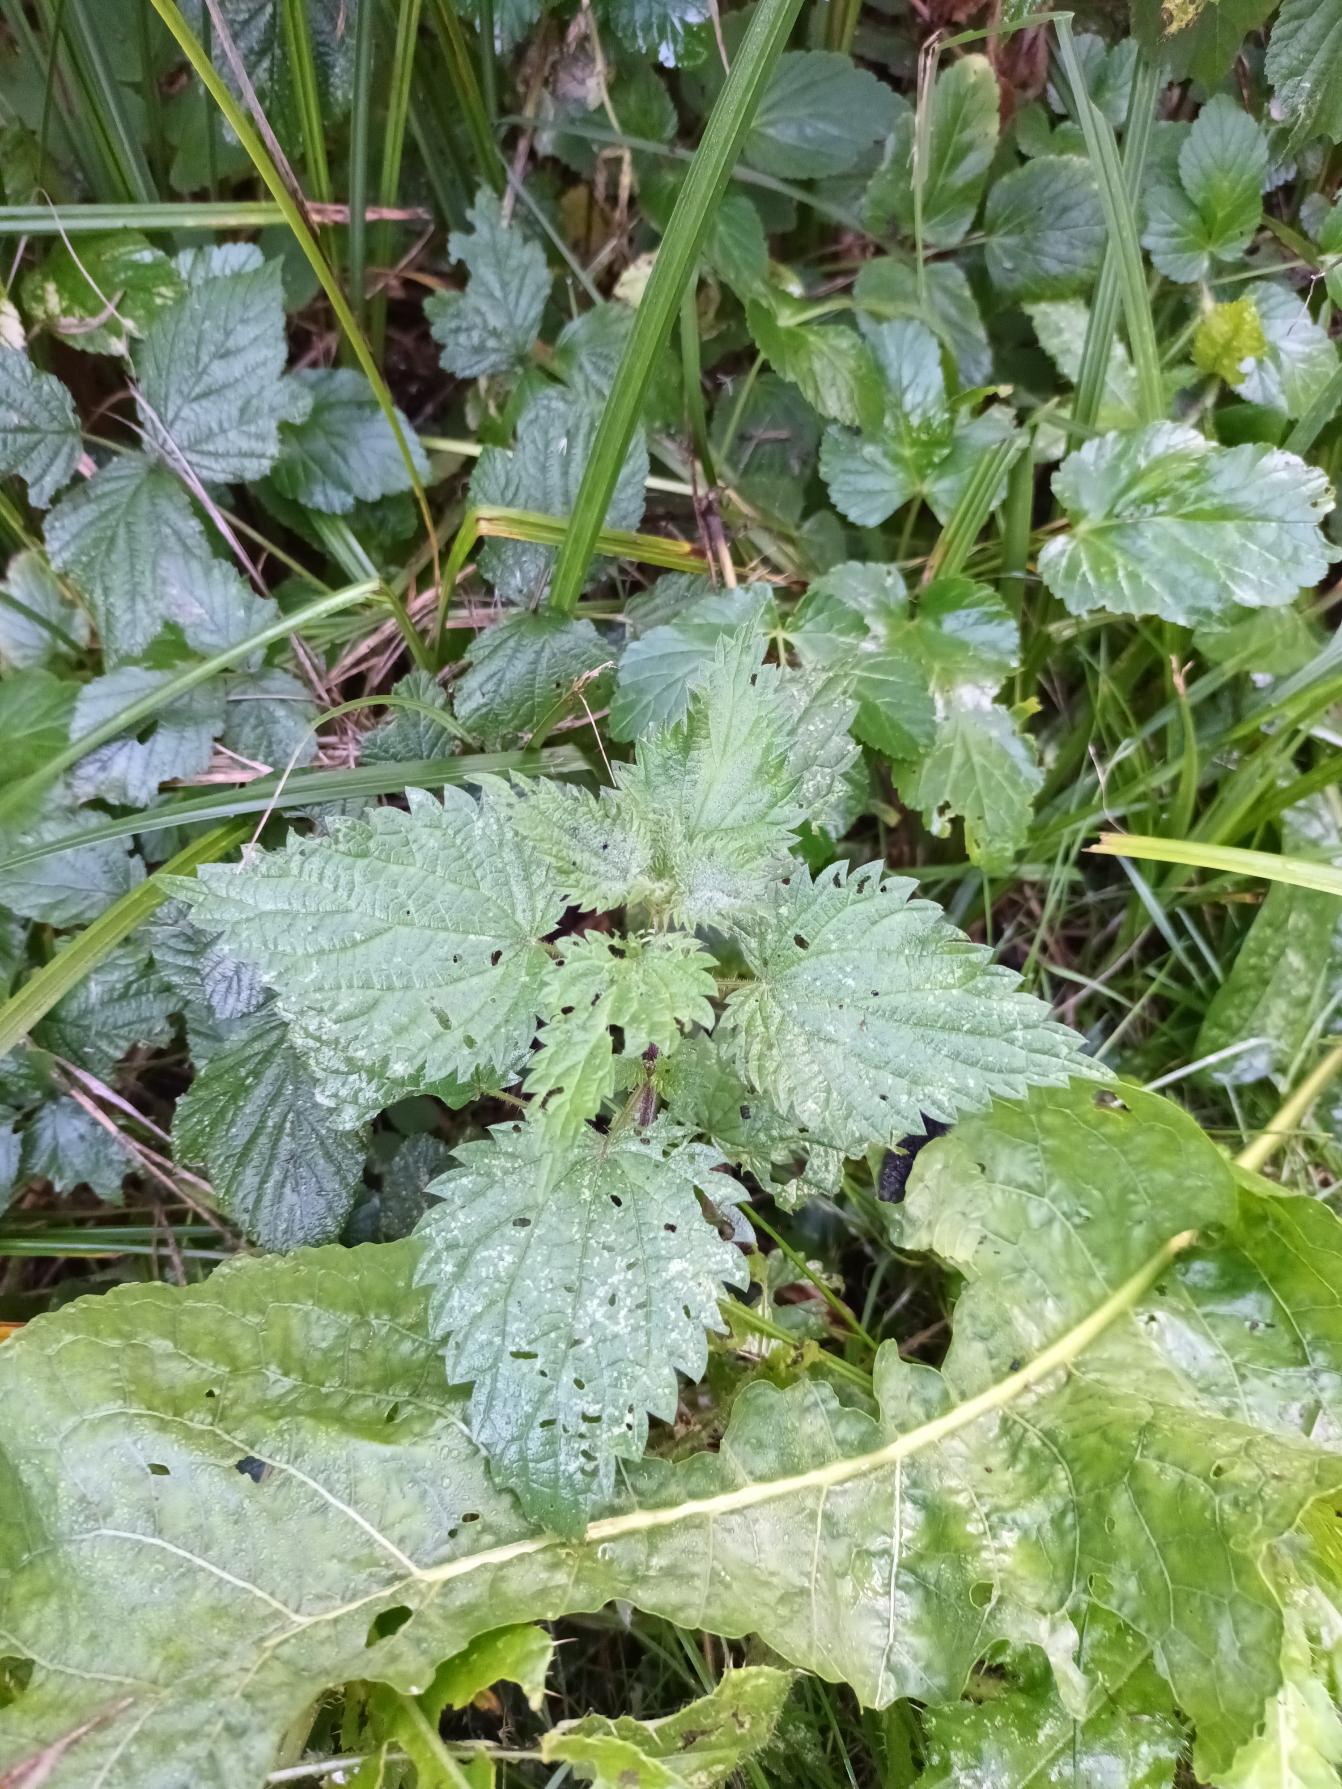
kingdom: Plantae
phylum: Tracheophyta
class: Magnoliopsida
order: Rosales
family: Urticaceae
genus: Urtica
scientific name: Urtica dioica
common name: Stor nælde
